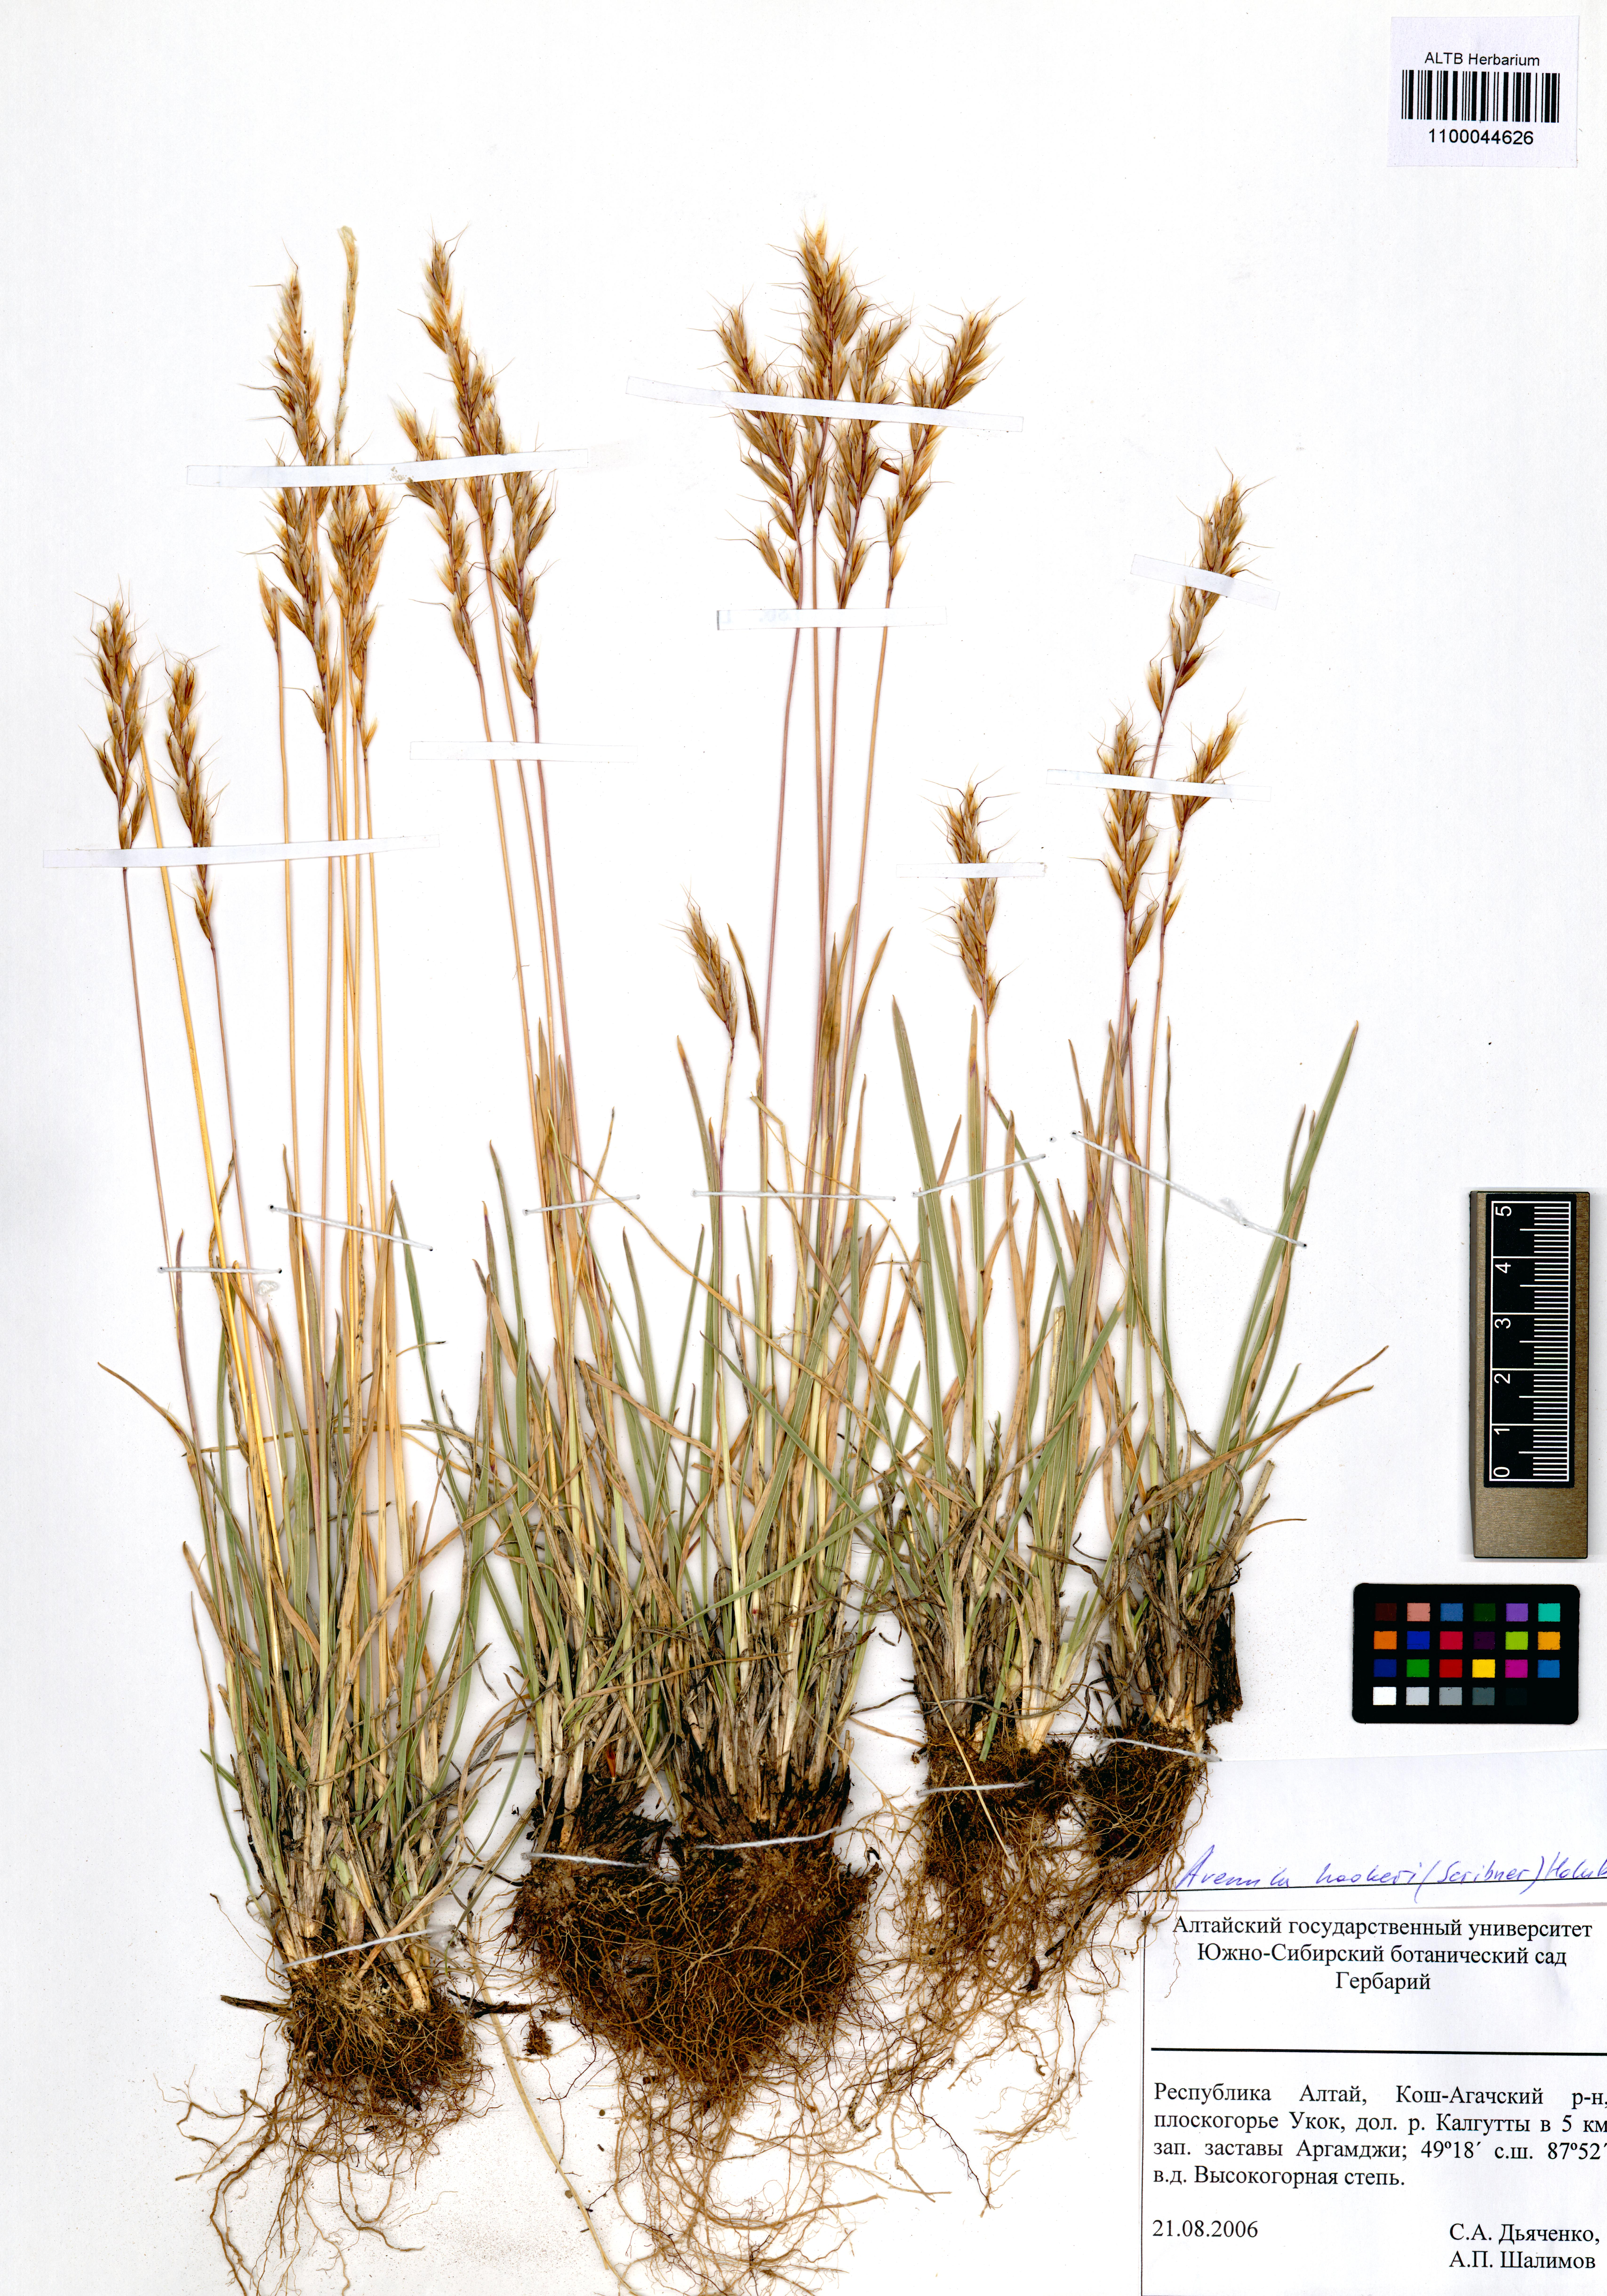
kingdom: Plantae
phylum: Tracheophyta
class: Liliopsida
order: Poales
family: Poaceae
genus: Helictochloa
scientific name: Helictochloa hookeri
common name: Hooker's alpine oatgrass
